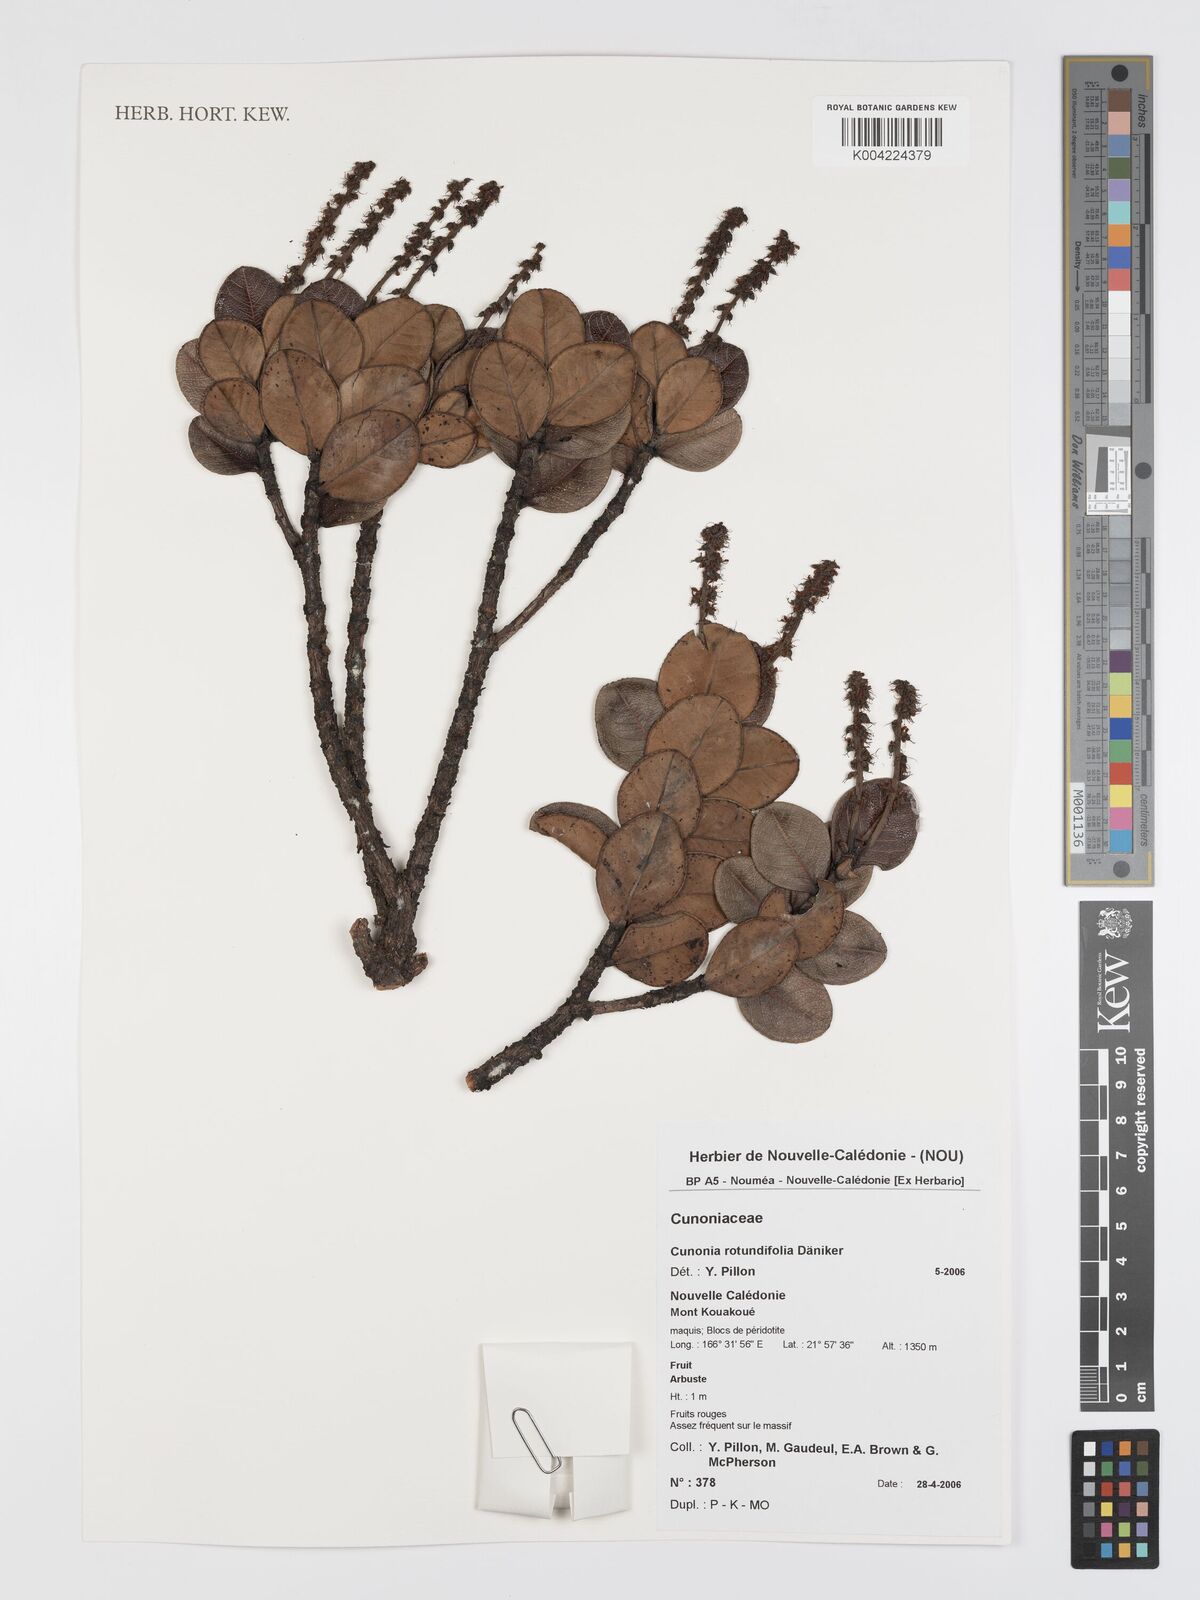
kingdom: Plantae
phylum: Tracheophyta
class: Magnoliopsida
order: Oxalidales
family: Cunoniaceae
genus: Cunonia
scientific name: Cunonia rotundifolia
